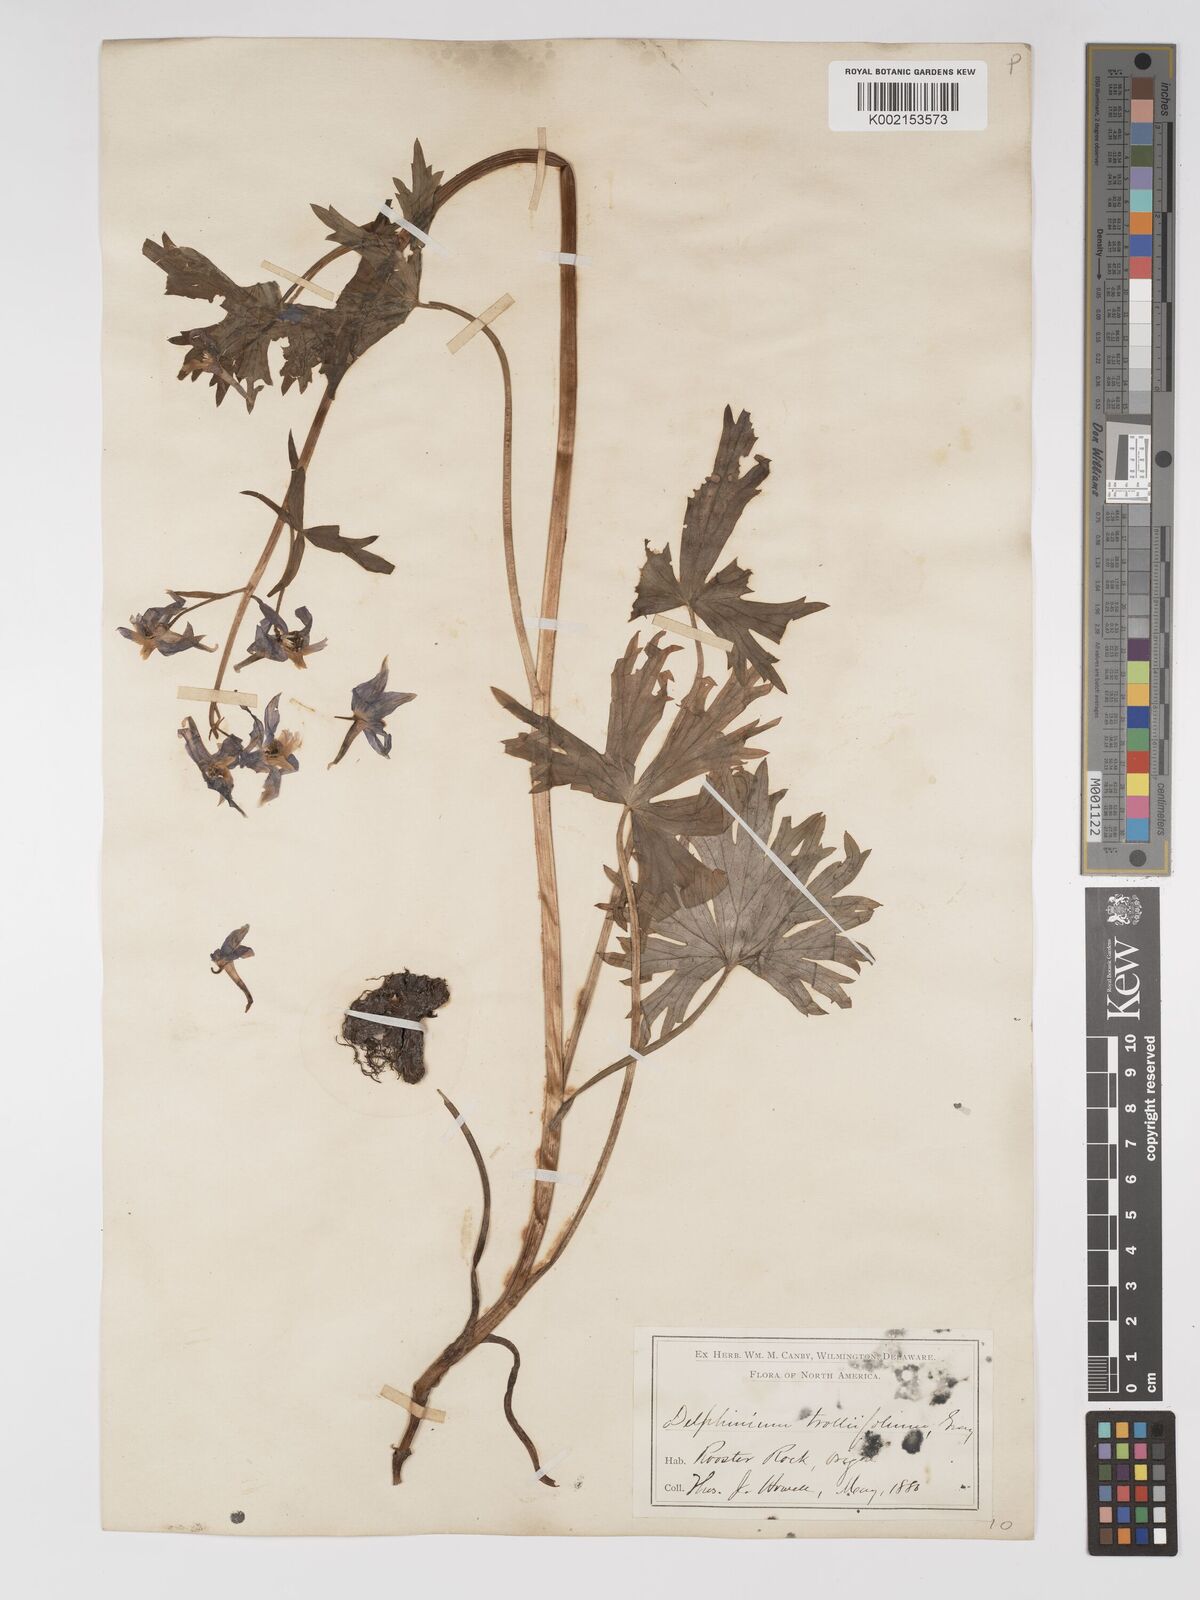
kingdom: Plantae
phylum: Tracheophyta
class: Magnoliopsida
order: Ranunculales
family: Ranunculaceae
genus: Delphinium
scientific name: Delphinium trolliifolium
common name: Cow-poison
